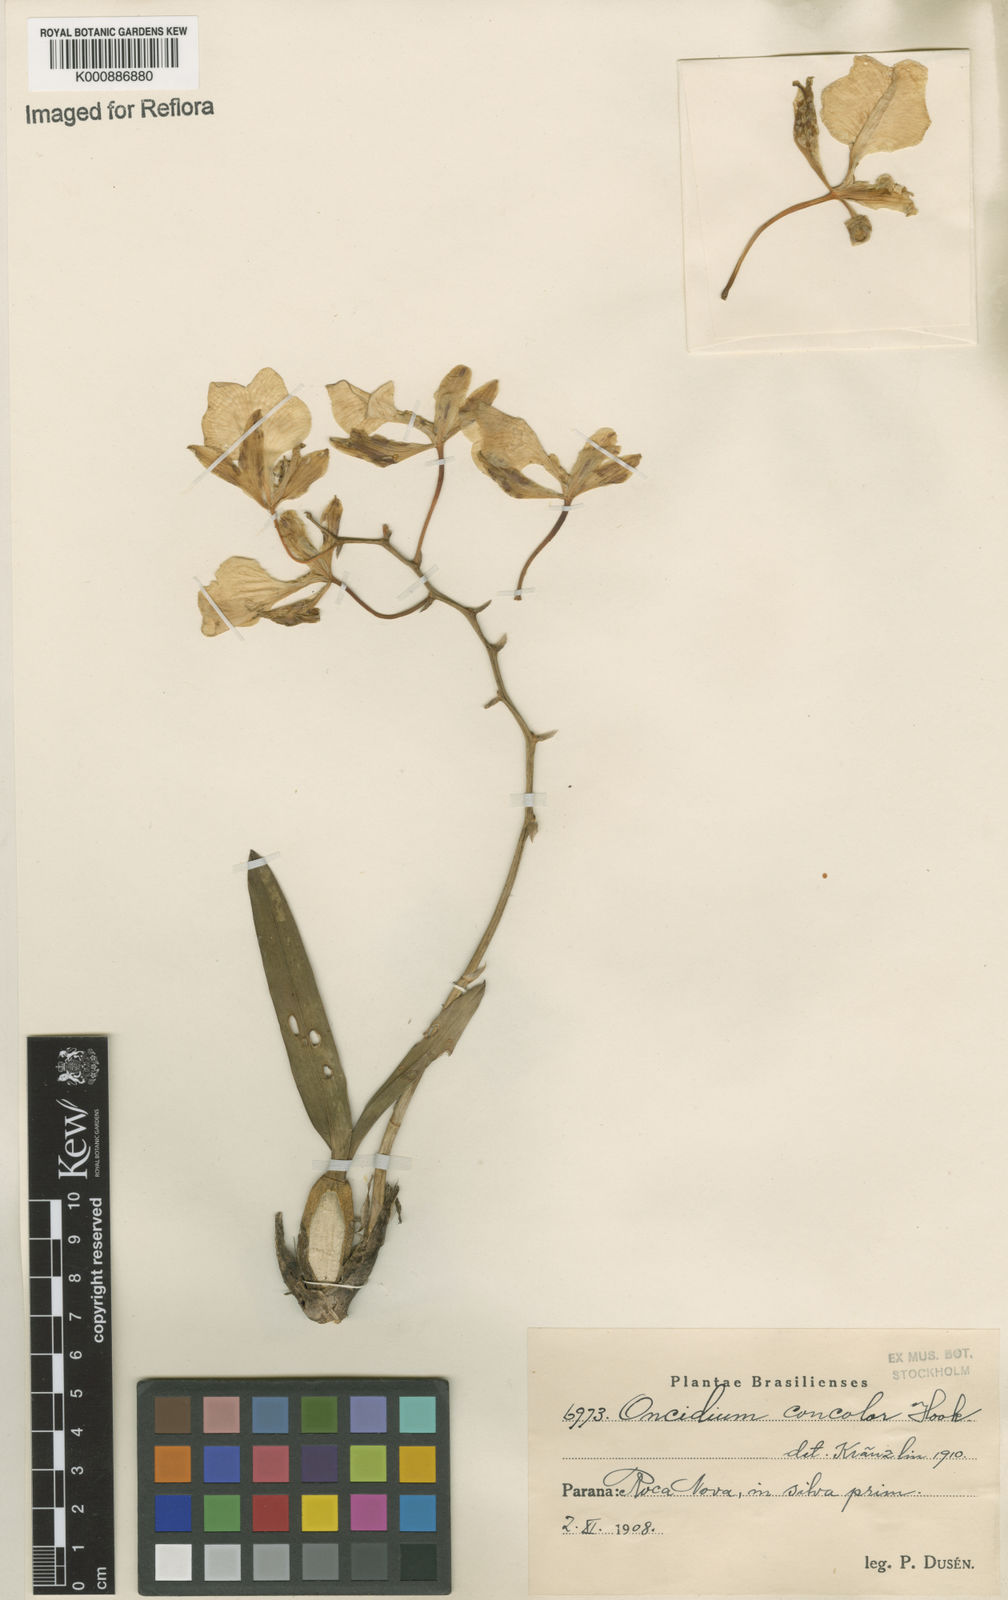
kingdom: Plantae
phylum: Tracheophyta
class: Liliopsida
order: Asparagales
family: Orchidaceae
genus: Gomesa
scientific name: Gomesa concolor
